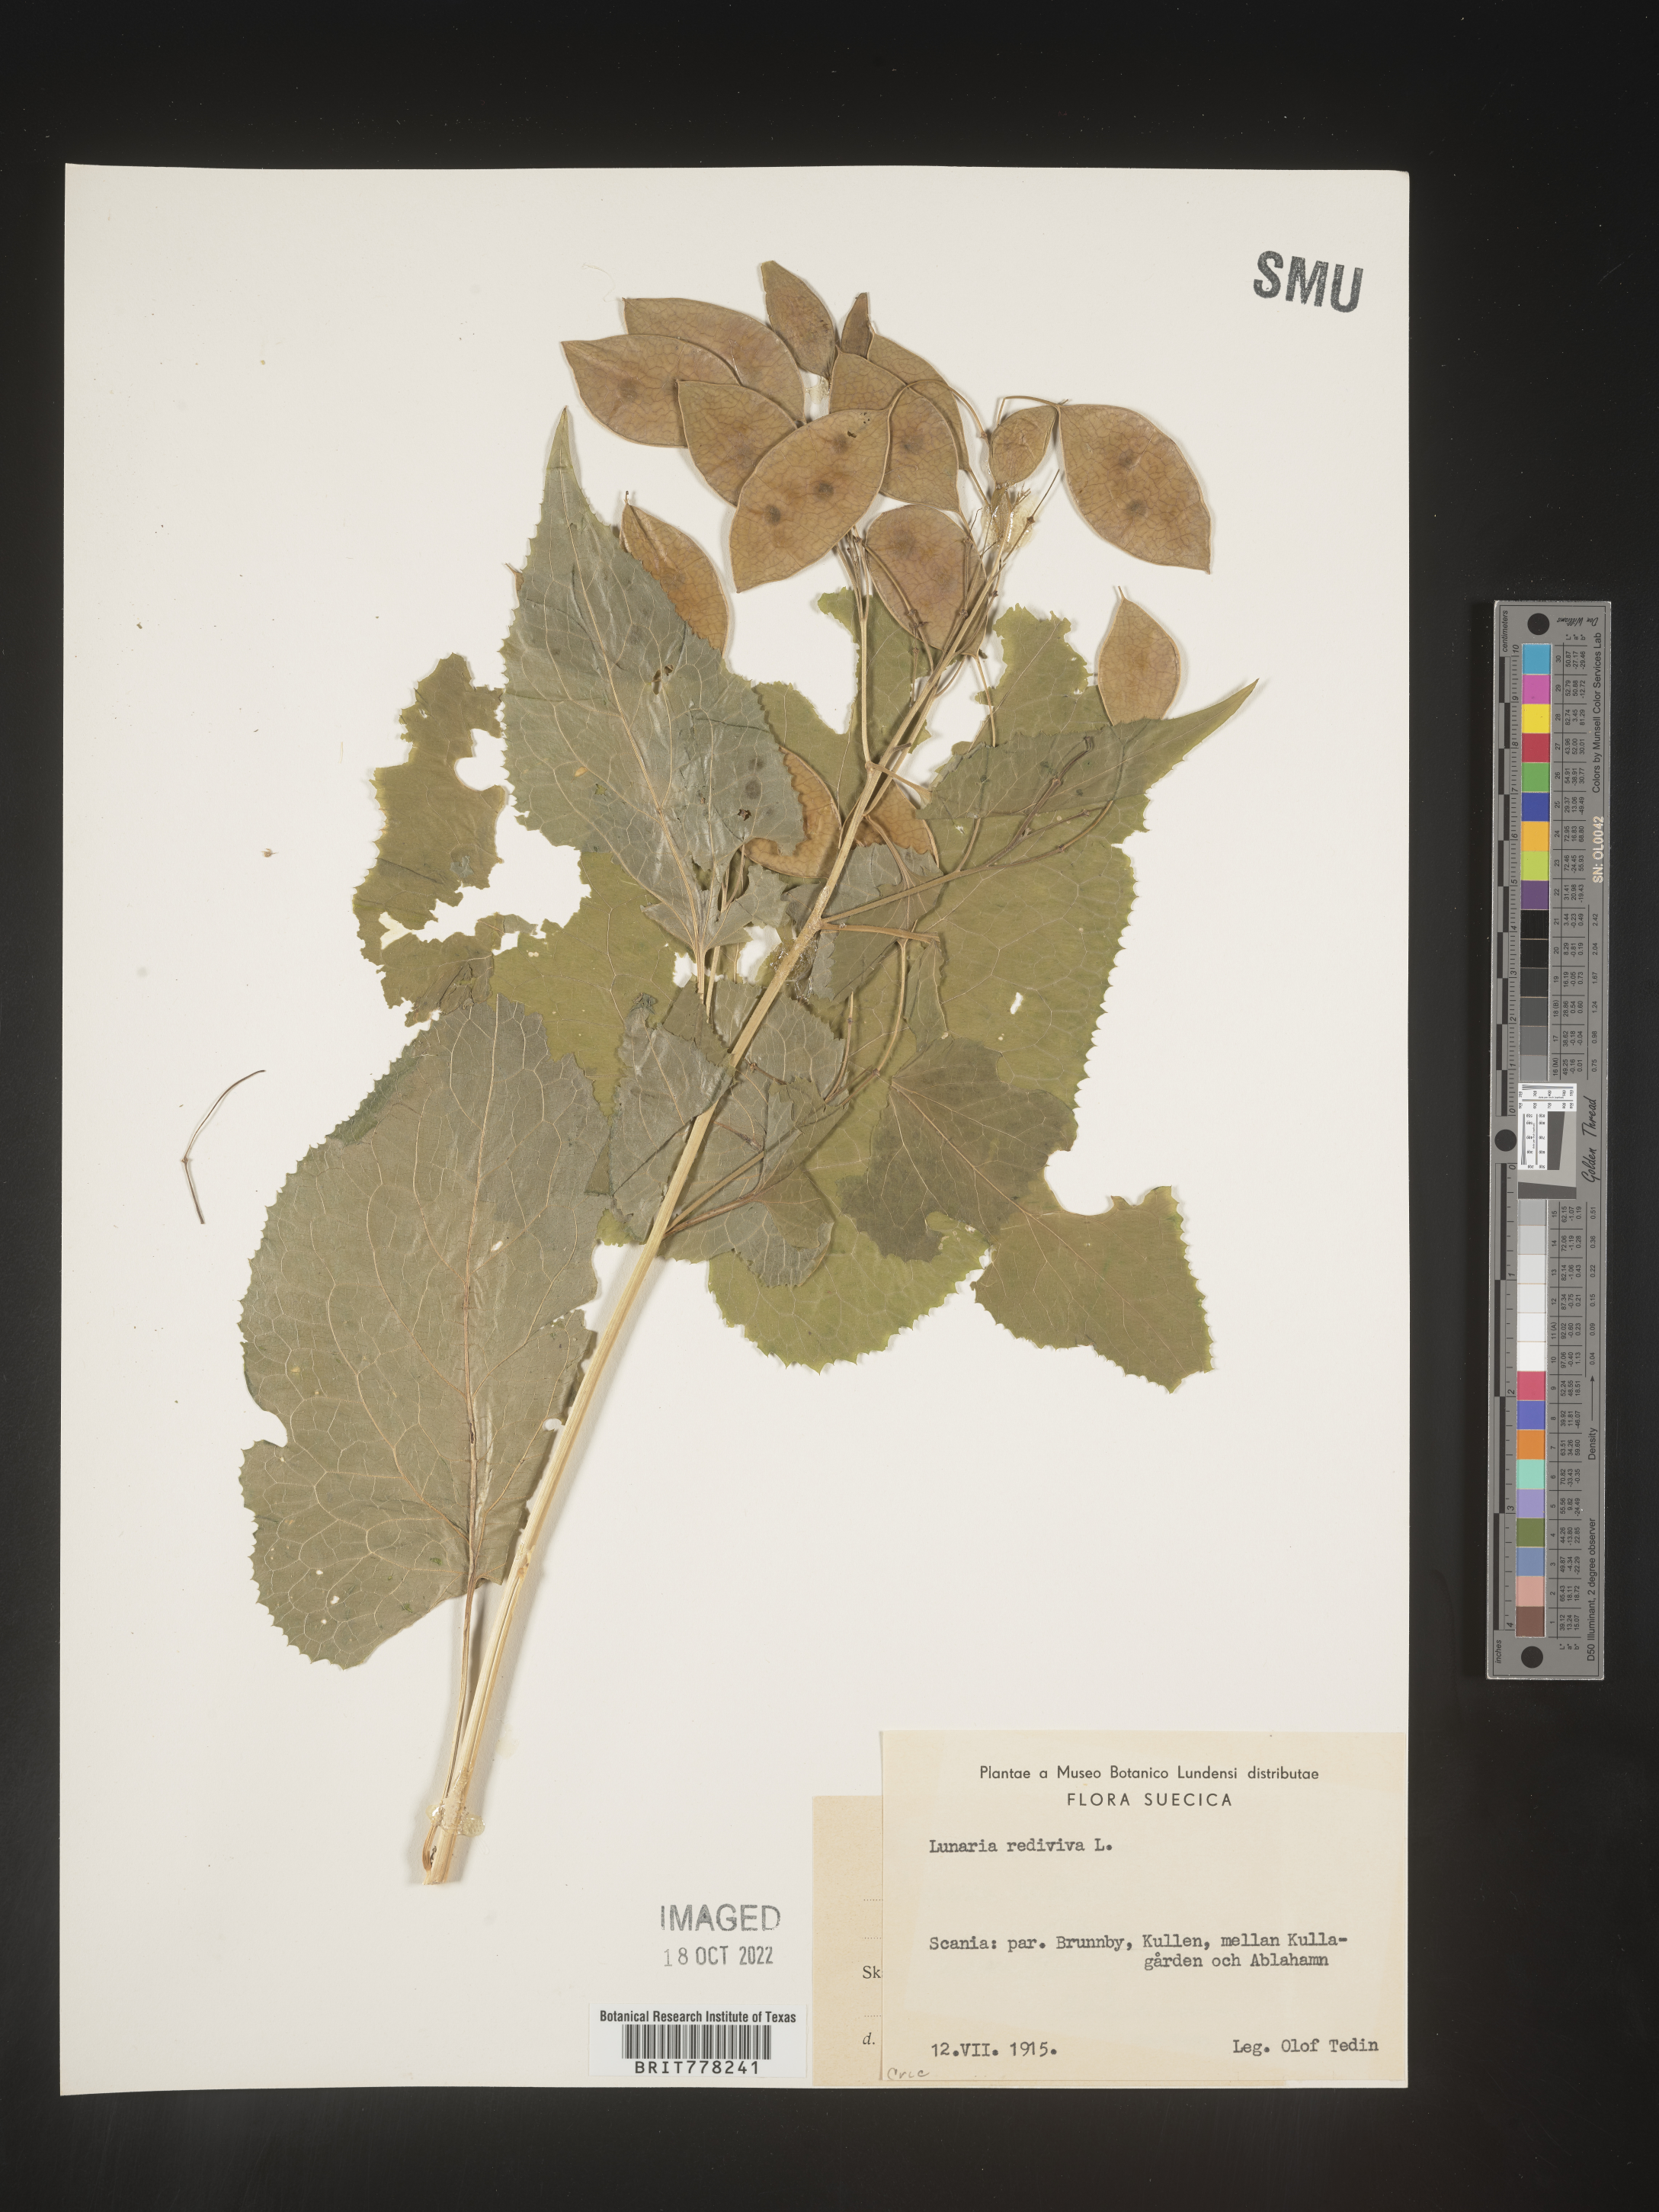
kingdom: Plantae
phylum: Tracheophyta
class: Magnoliopsida
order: Brassicales
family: Brassicaceae
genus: Lunaria
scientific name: Lunaria
